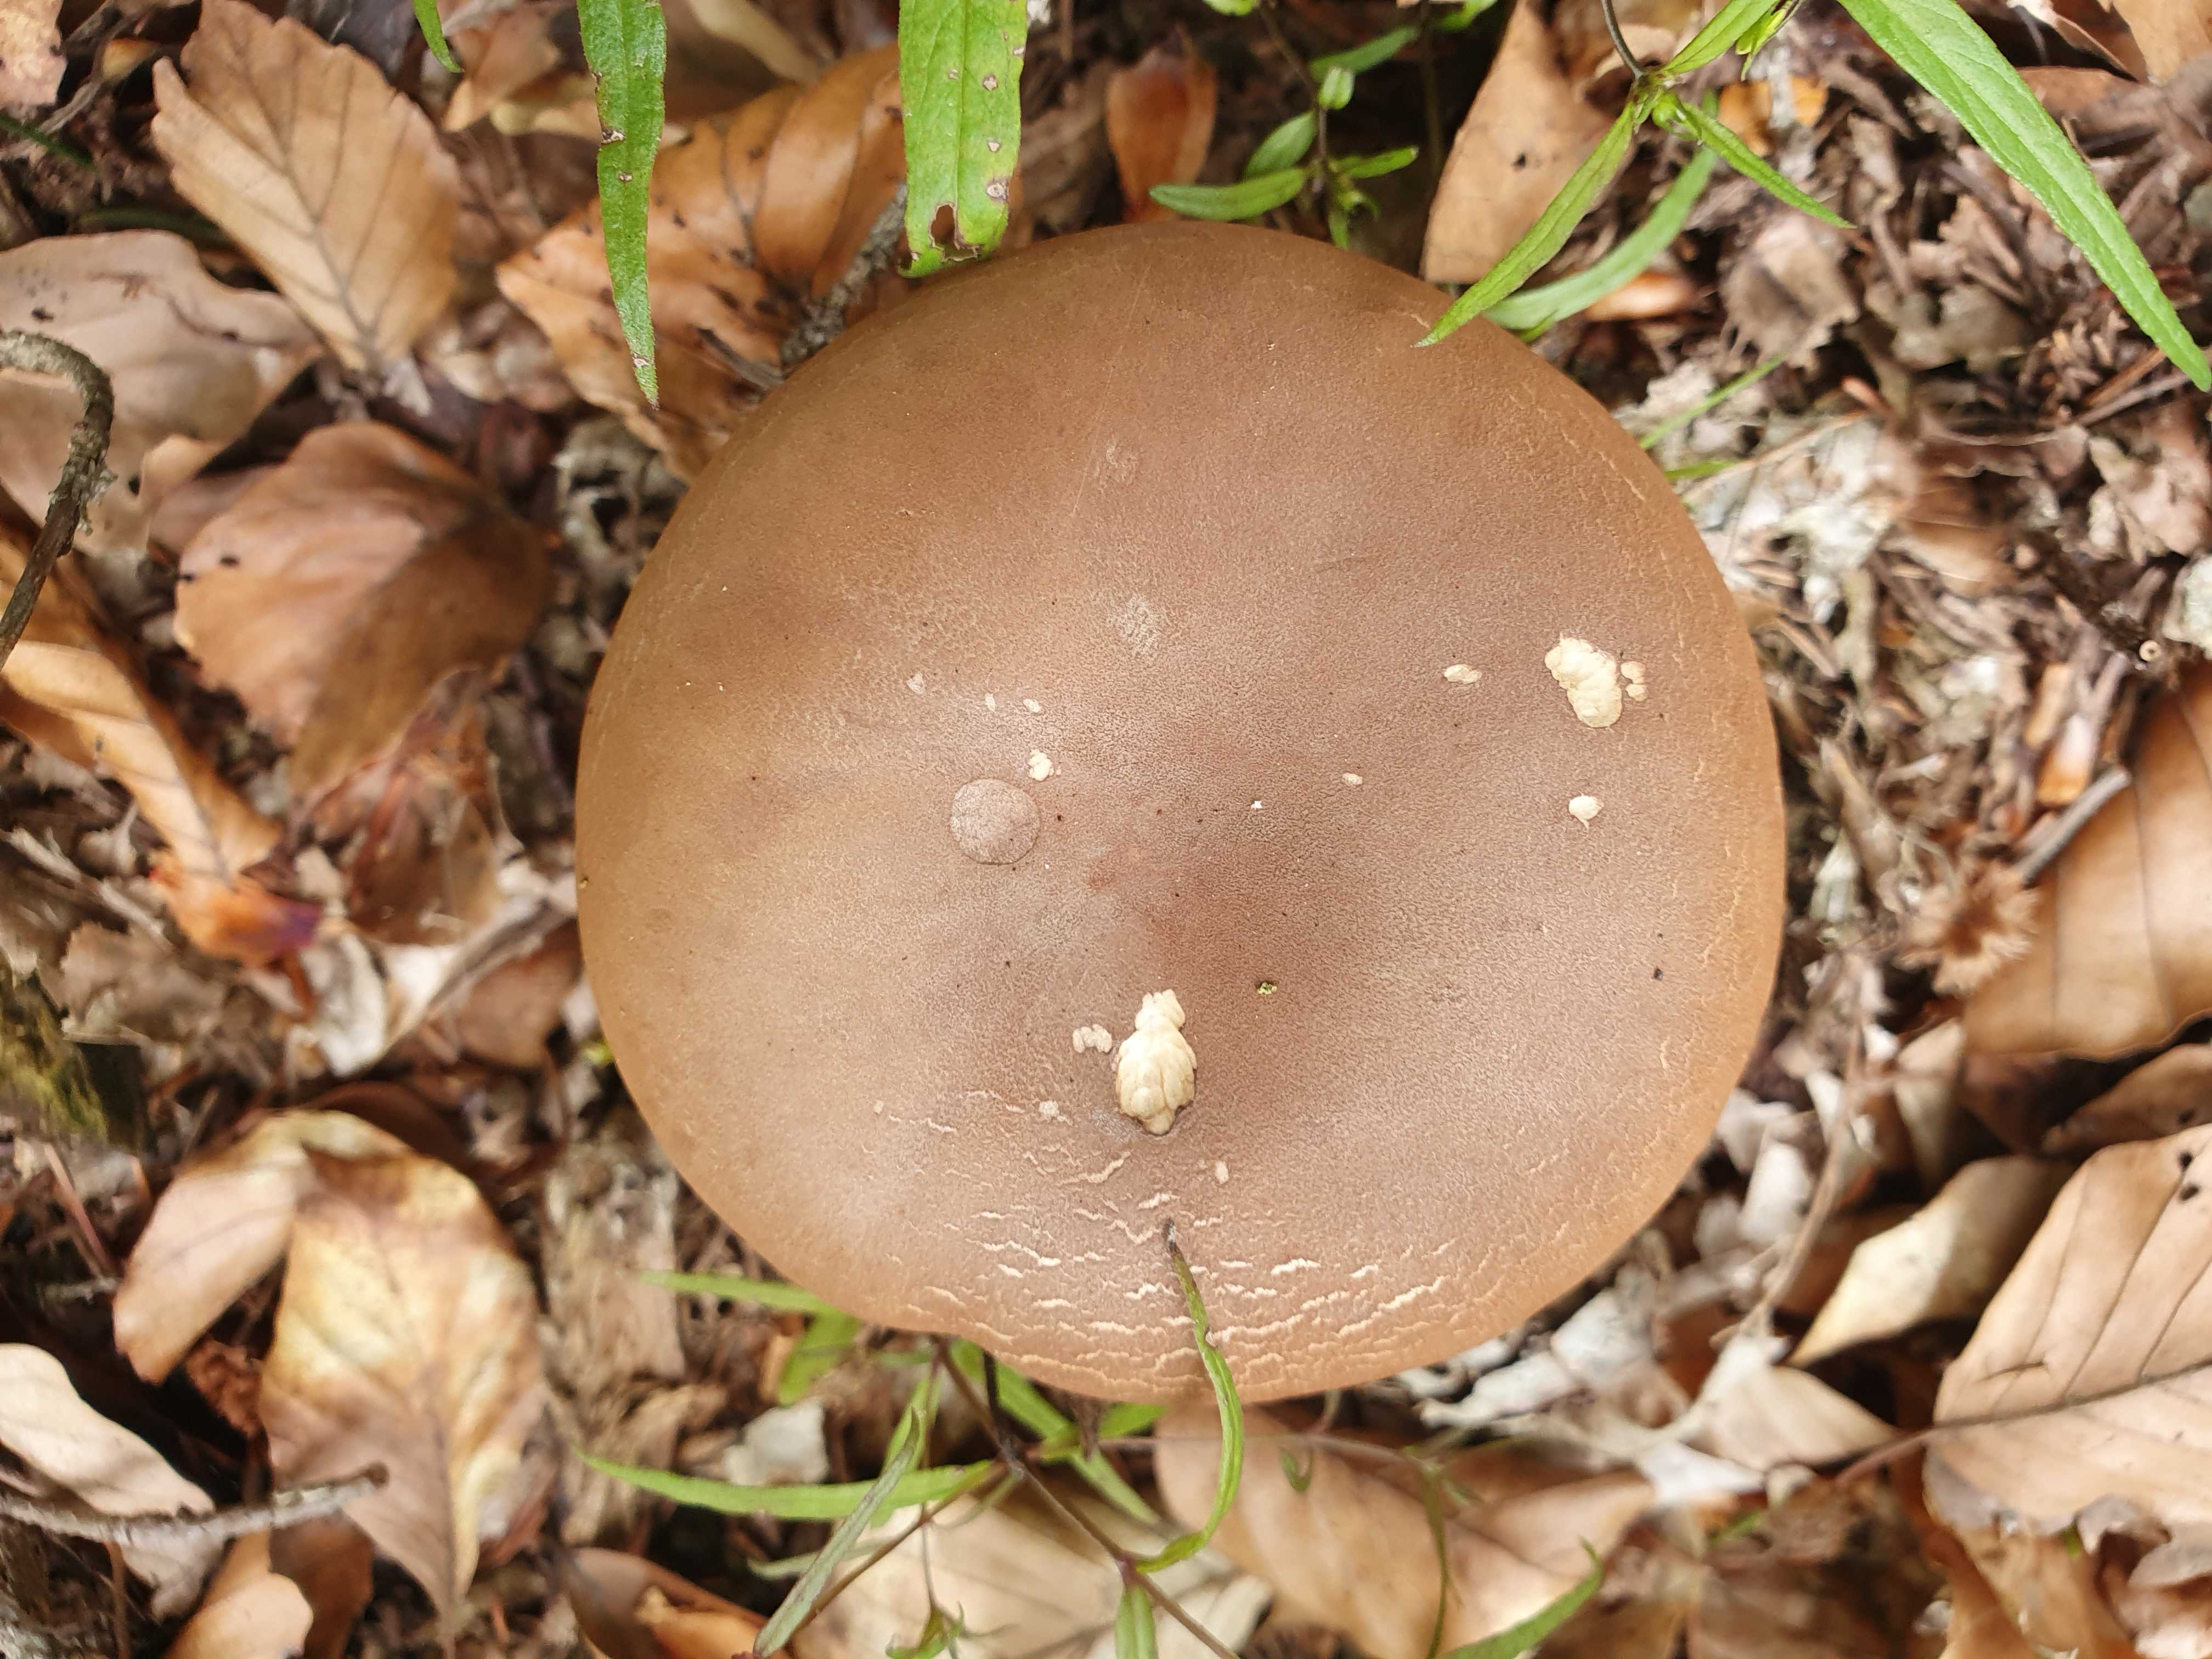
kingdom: Fungi
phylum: Basidiomycota
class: Agaricomycetes
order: Boletales
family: Tapinellaceae
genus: Tapinella
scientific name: Tapinella atrotomentosa
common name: sortfiltet viftesvamp
